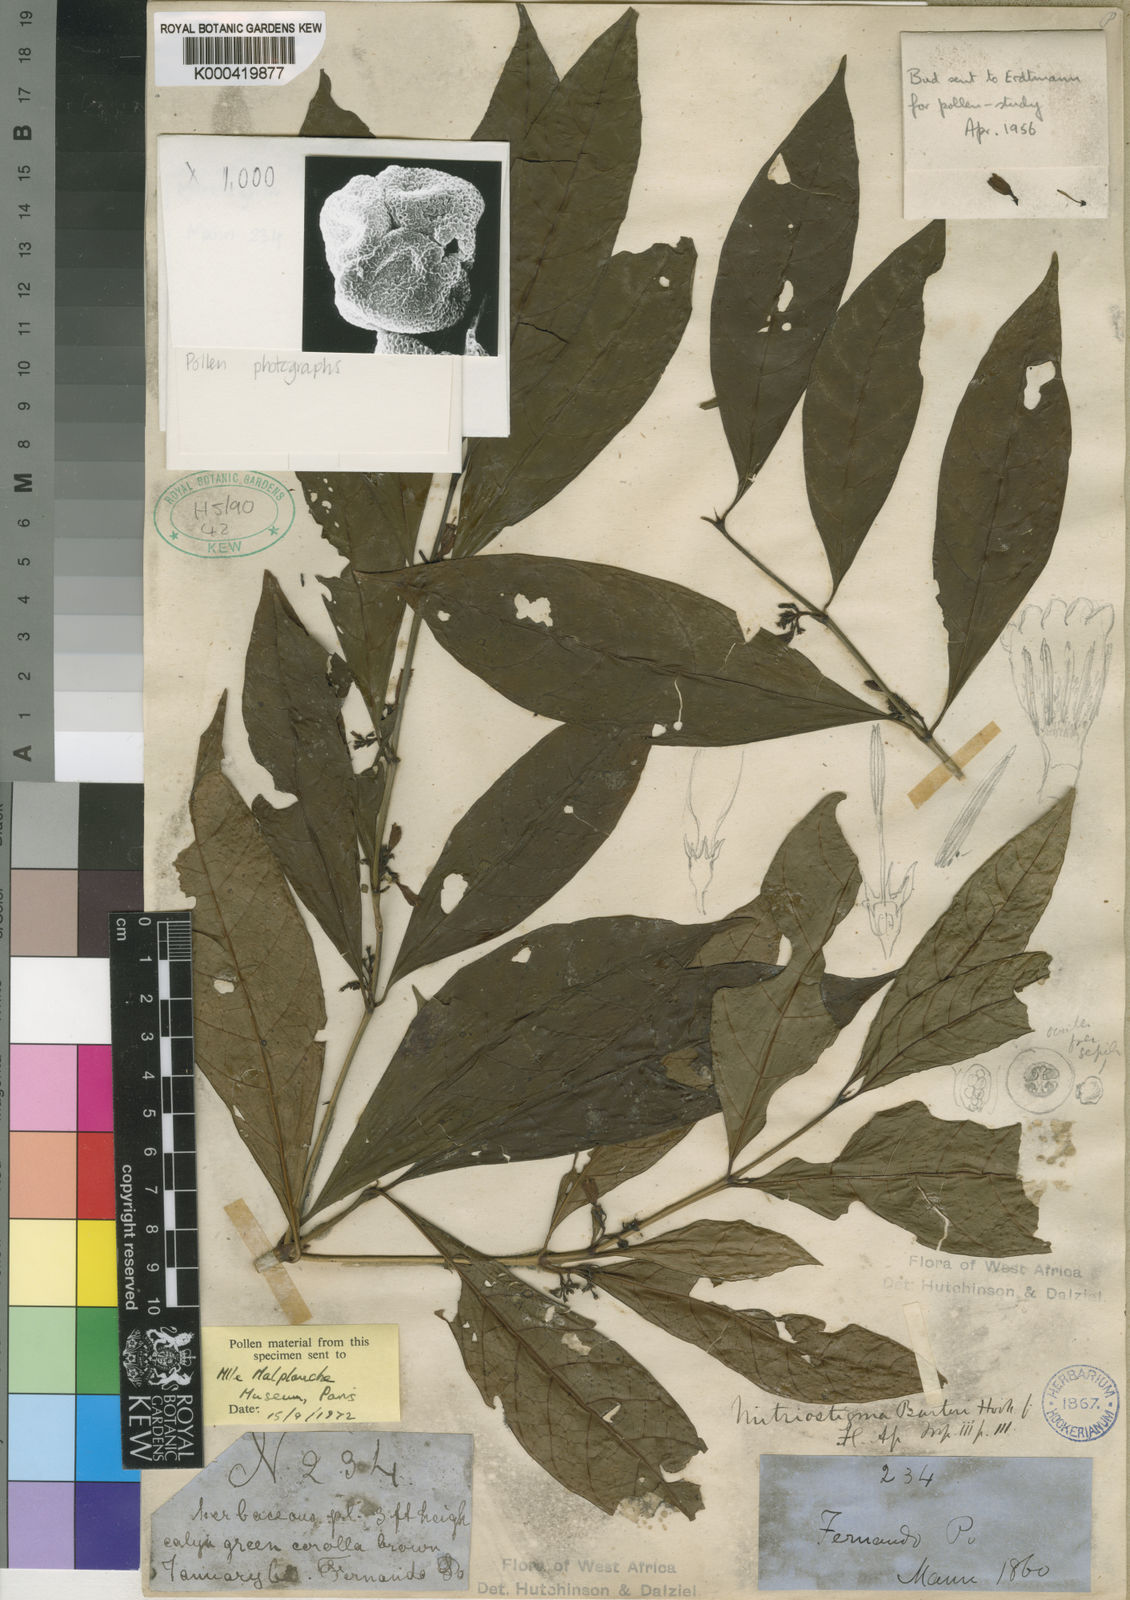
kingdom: Plantae
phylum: Tracheophyta
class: Magnoliopsida
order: Gentianales
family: Rubiaceae
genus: Mitriostigma
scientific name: Mitriostigma barteri
